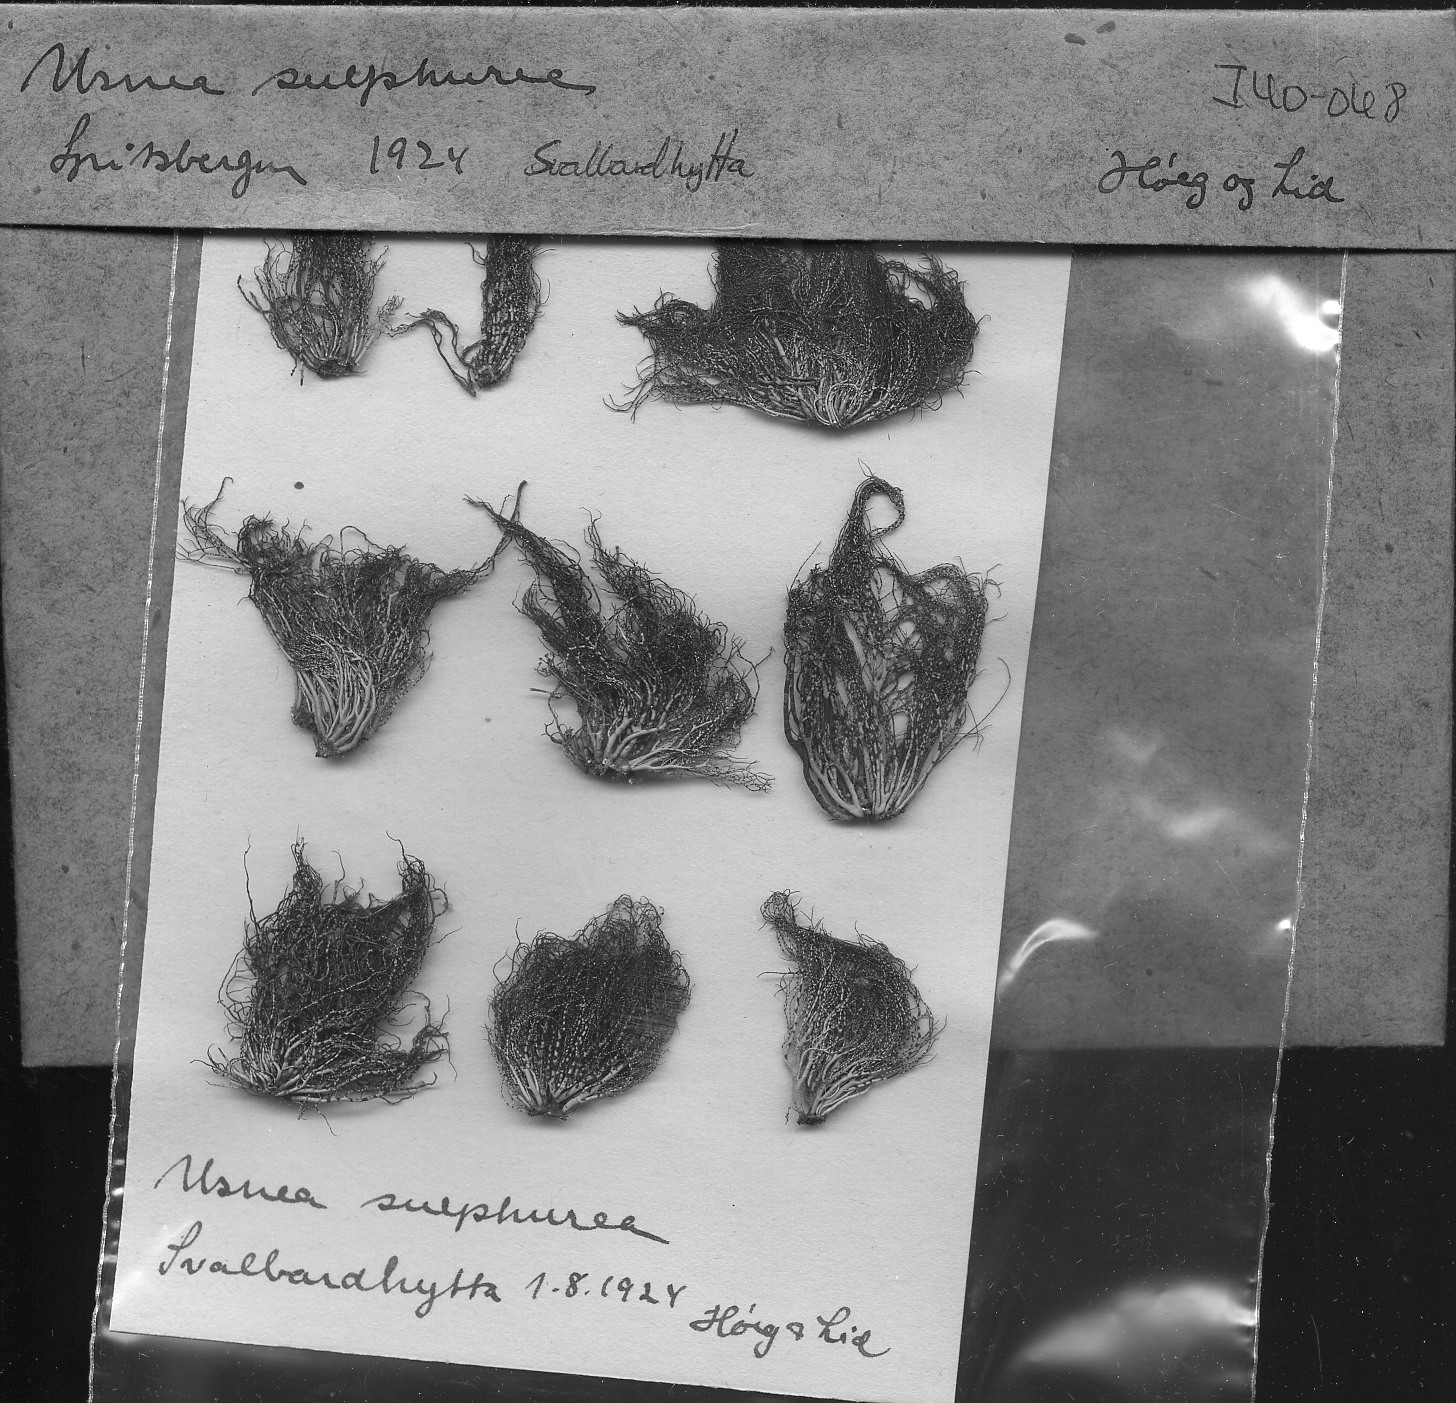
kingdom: Fungi
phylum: Ascomycota
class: Lecanoromycetes
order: Lecanorales
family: Parmeliaceae
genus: Usnea
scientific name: Usnea Neuropogon sphacelatus
